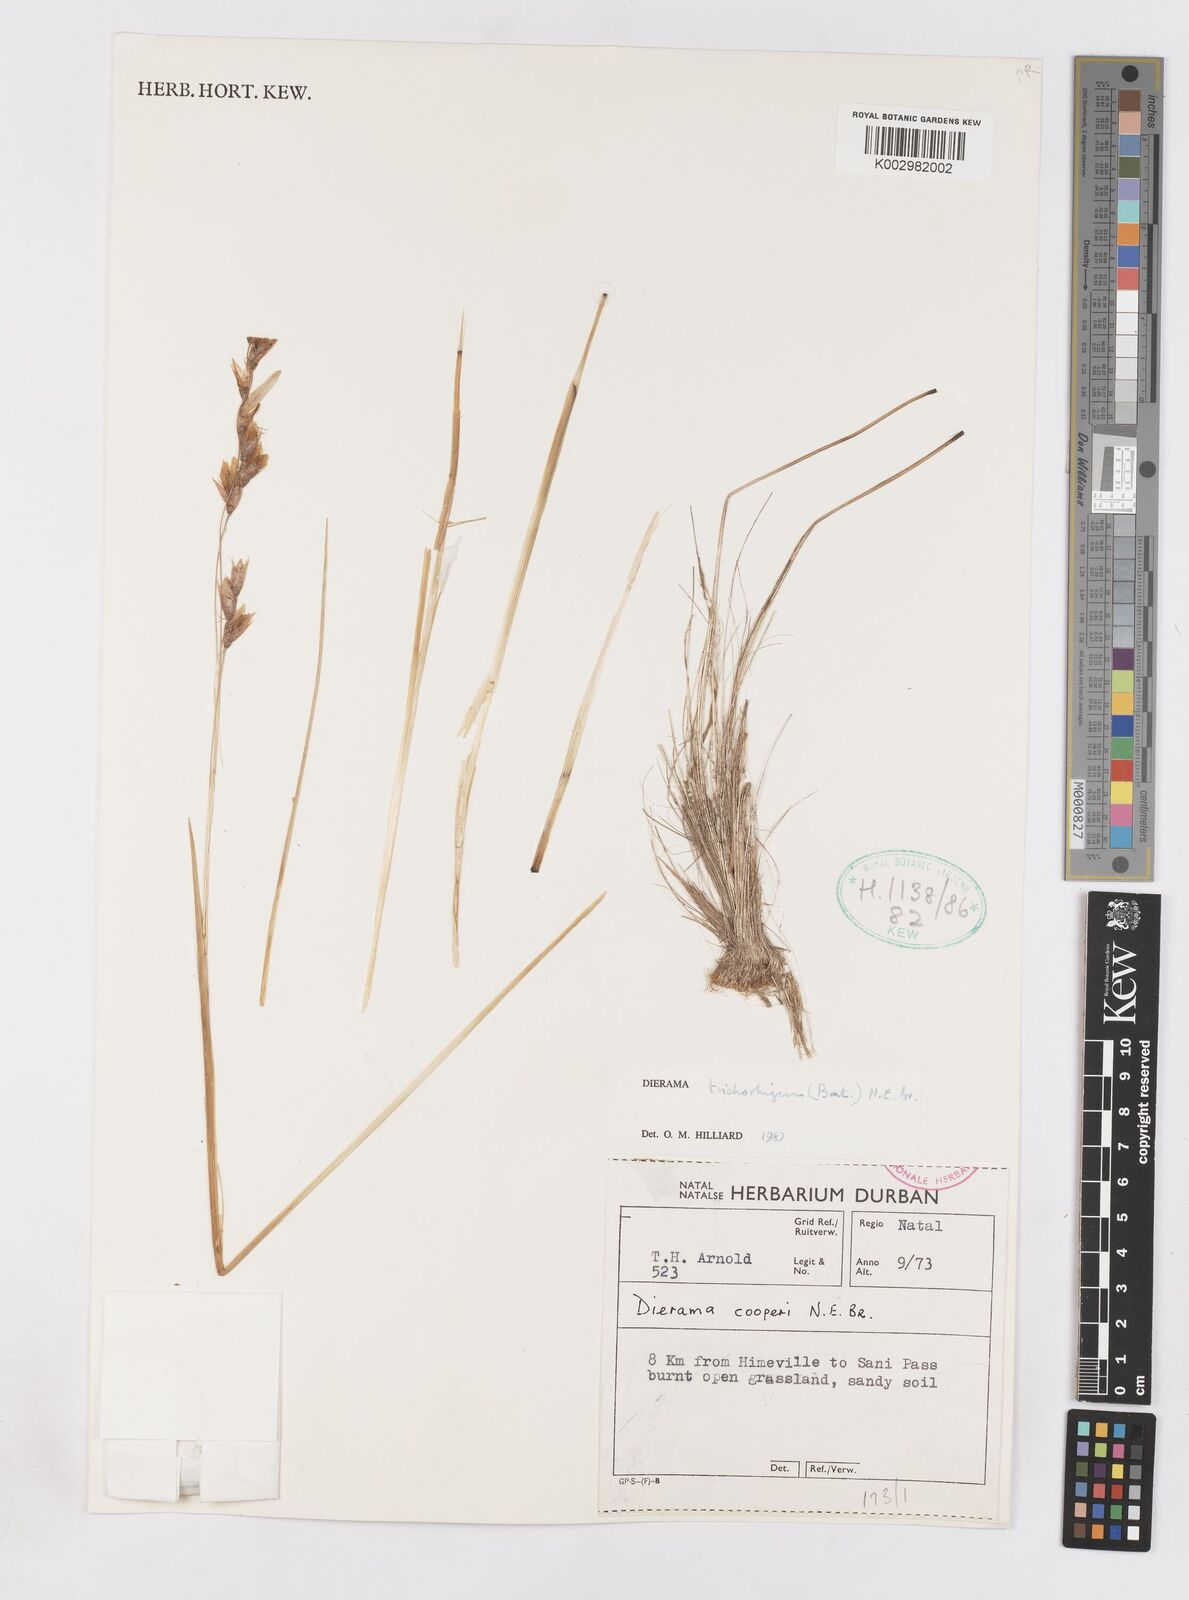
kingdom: Plantae
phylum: Tracheophyta
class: Liliopsida
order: Asparagales
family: Iridaceae
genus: Dierama
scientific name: Dierama trichorhizum
